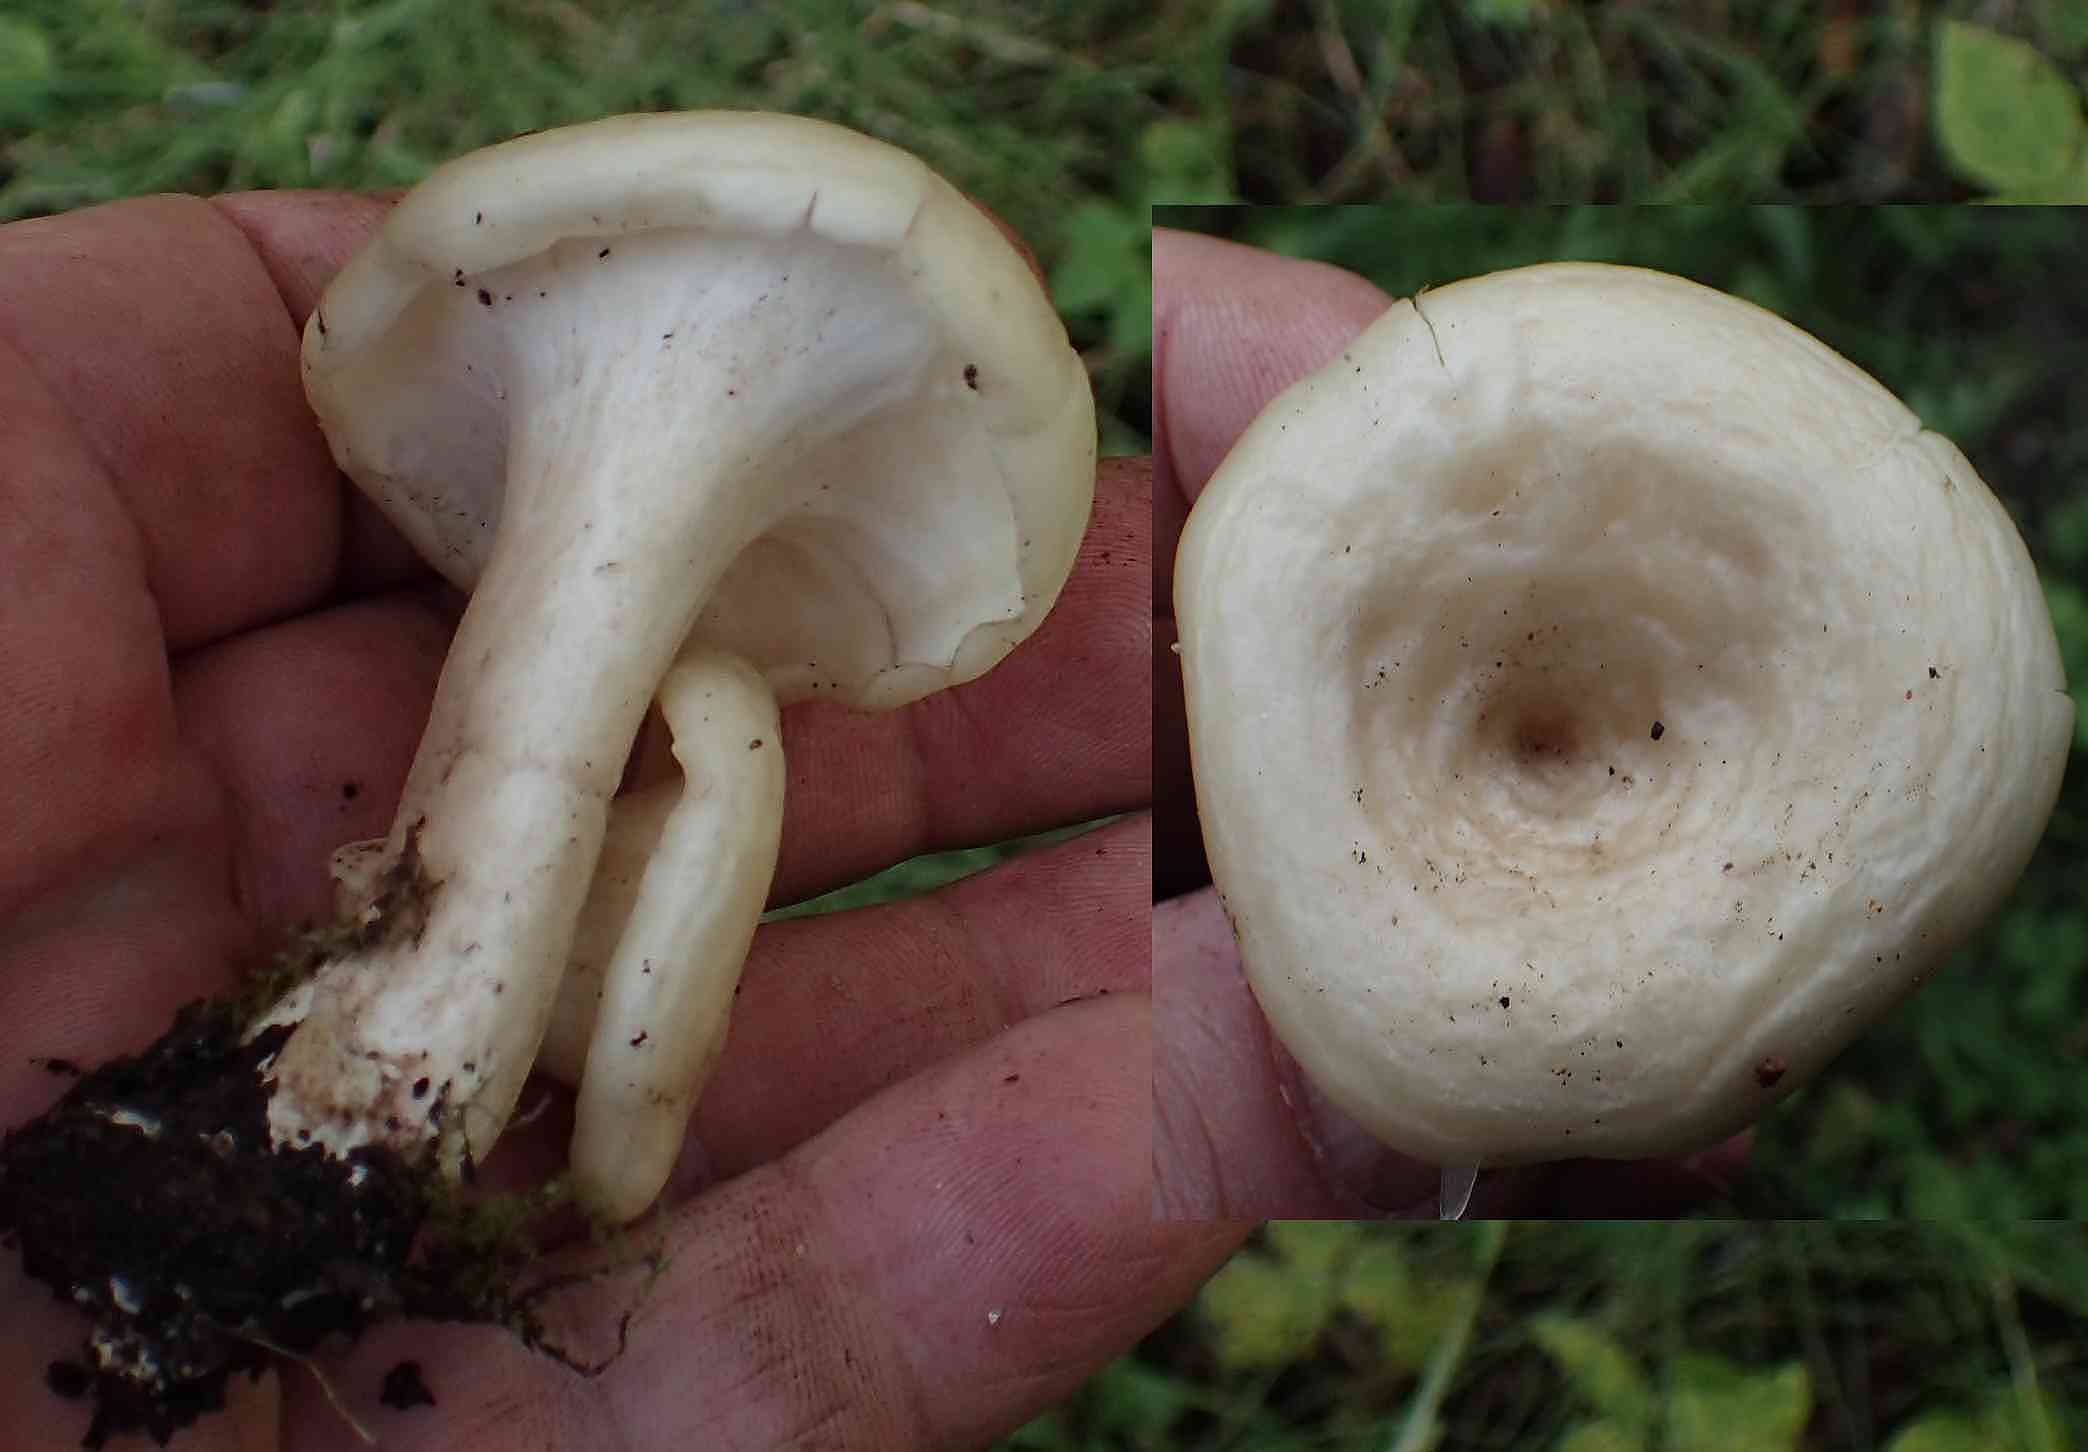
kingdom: Fungi
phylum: Basidiomycota
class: Agaricomycetes
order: Polyporales
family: Polyporaceae
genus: Picipes
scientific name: Picipes melanopus
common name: sortfodet stilkporesvamp
